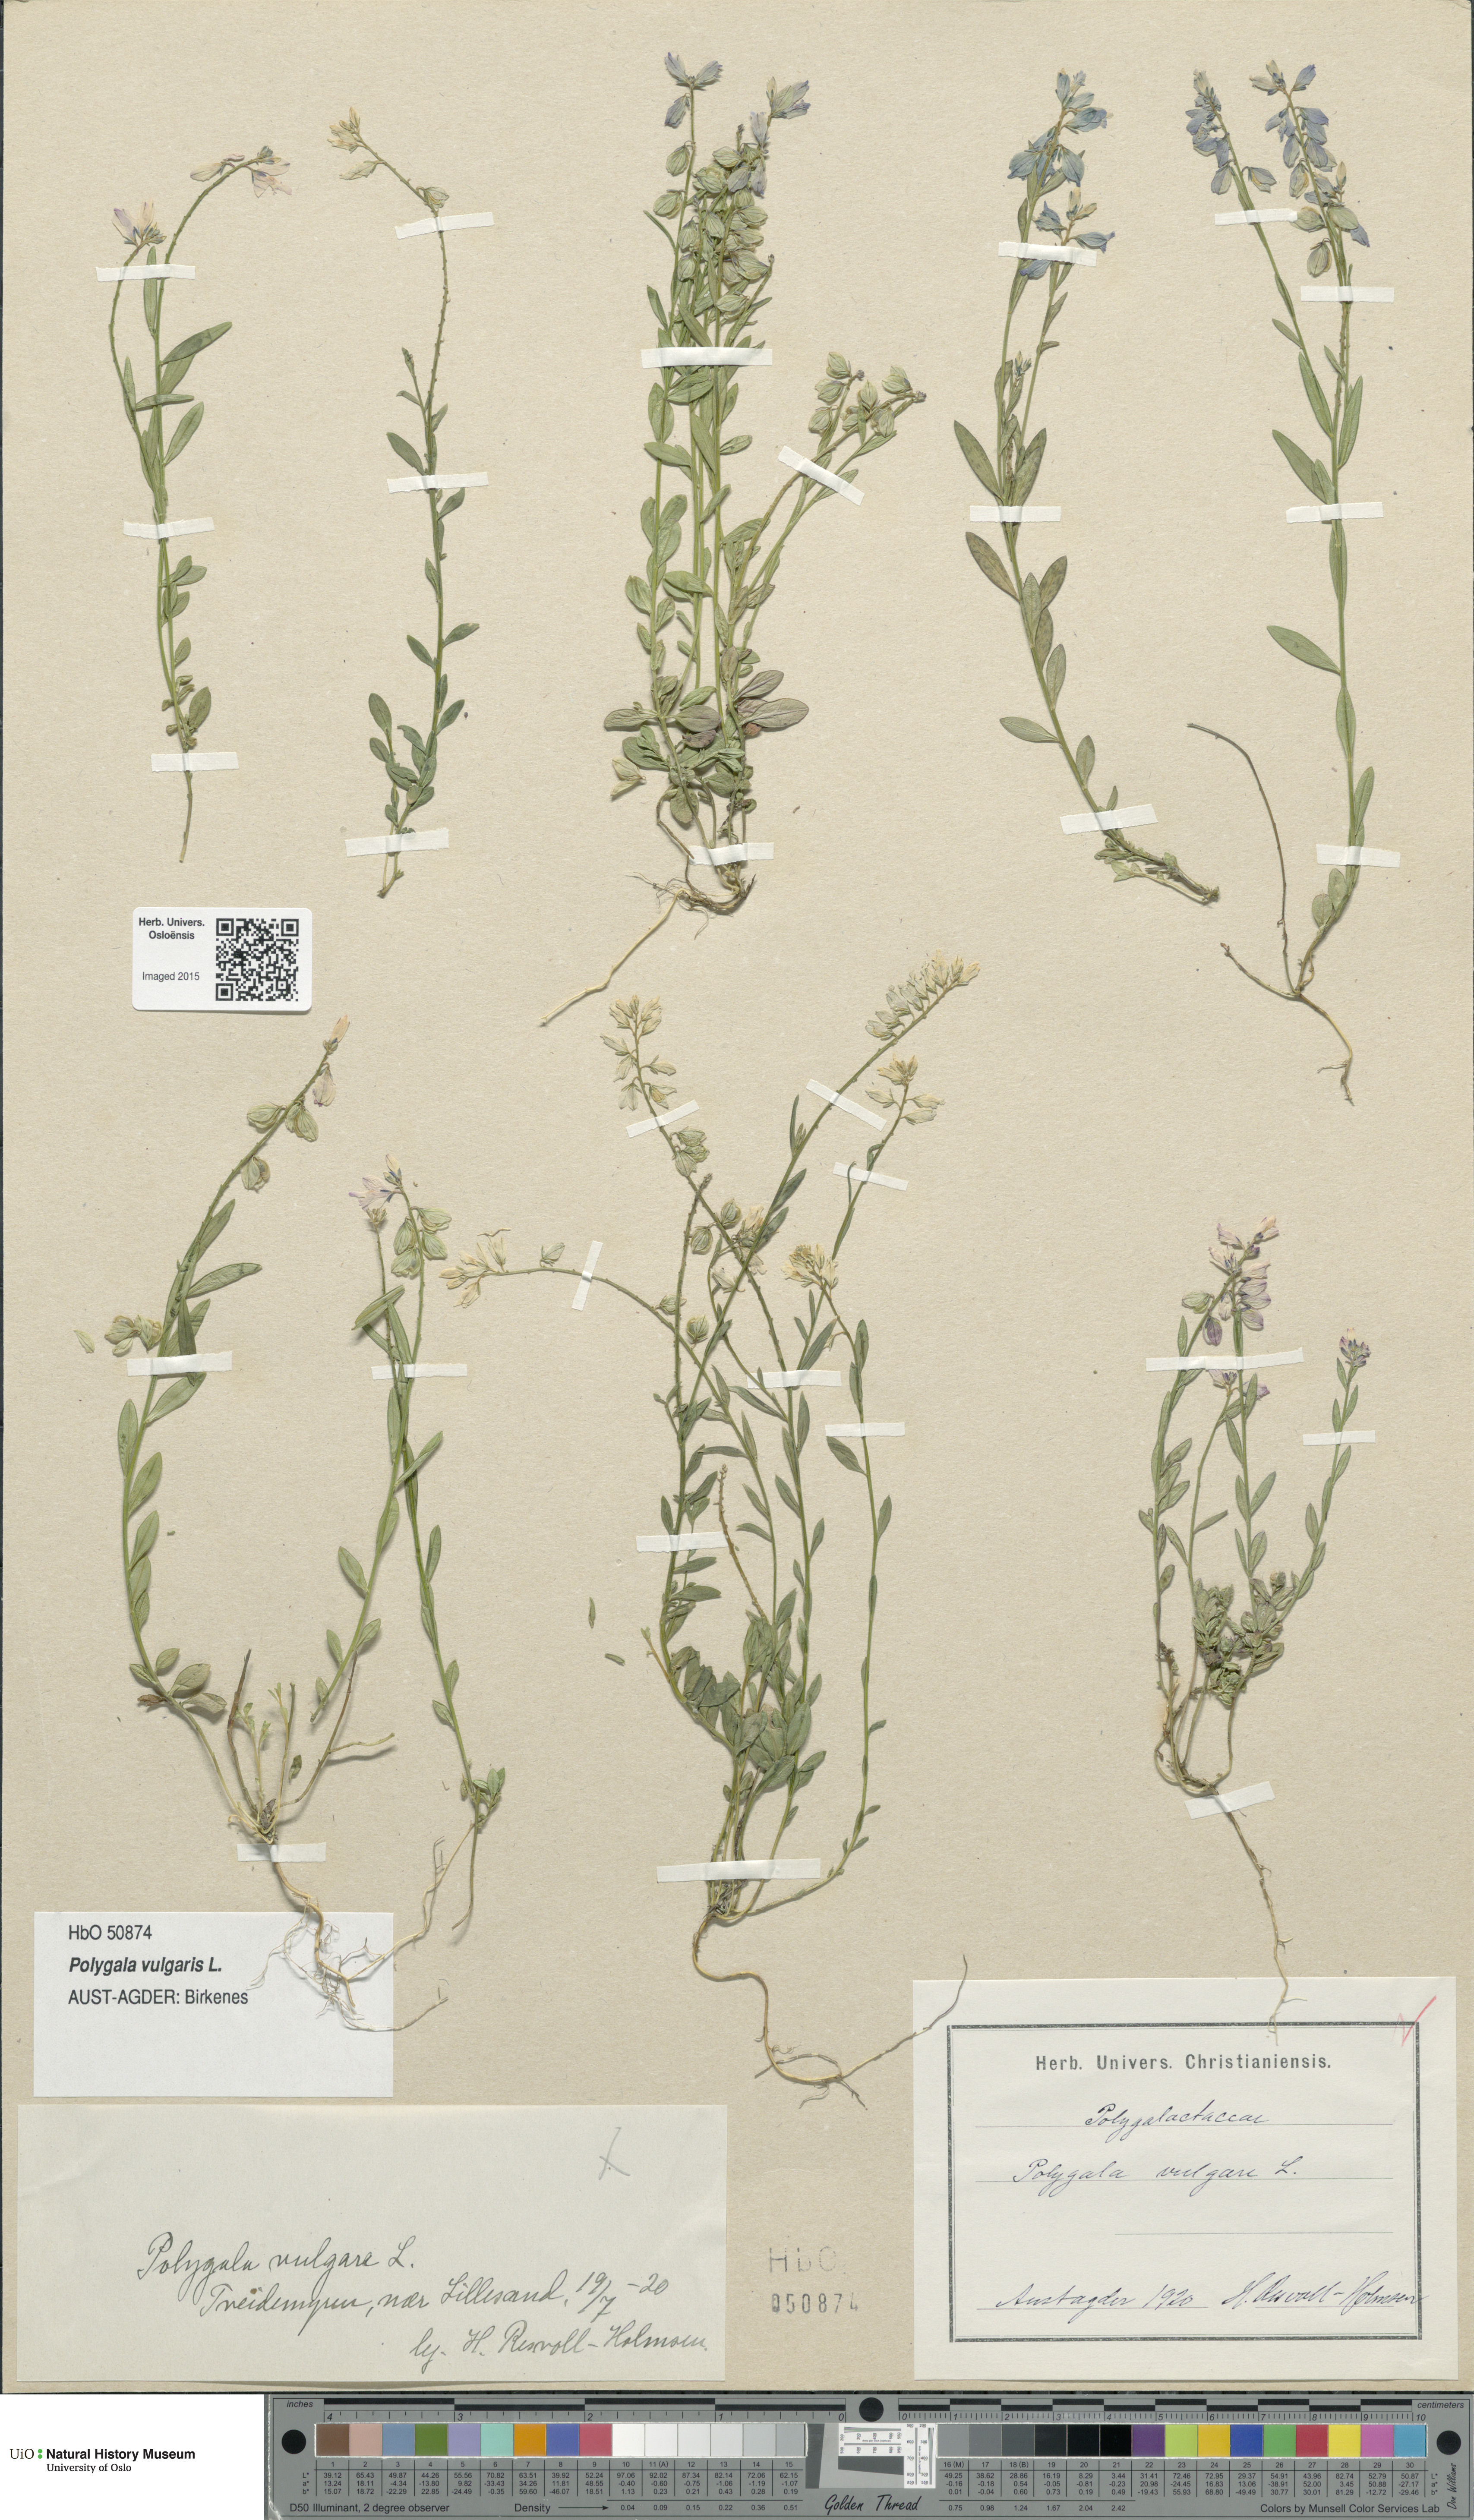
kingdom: Plantae
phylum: Tracheophyta
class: Magnoliopsida
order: Fabales
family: Polygalaceae
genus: Polygala
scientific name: Polygala vulgaris
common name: Common milkwort
